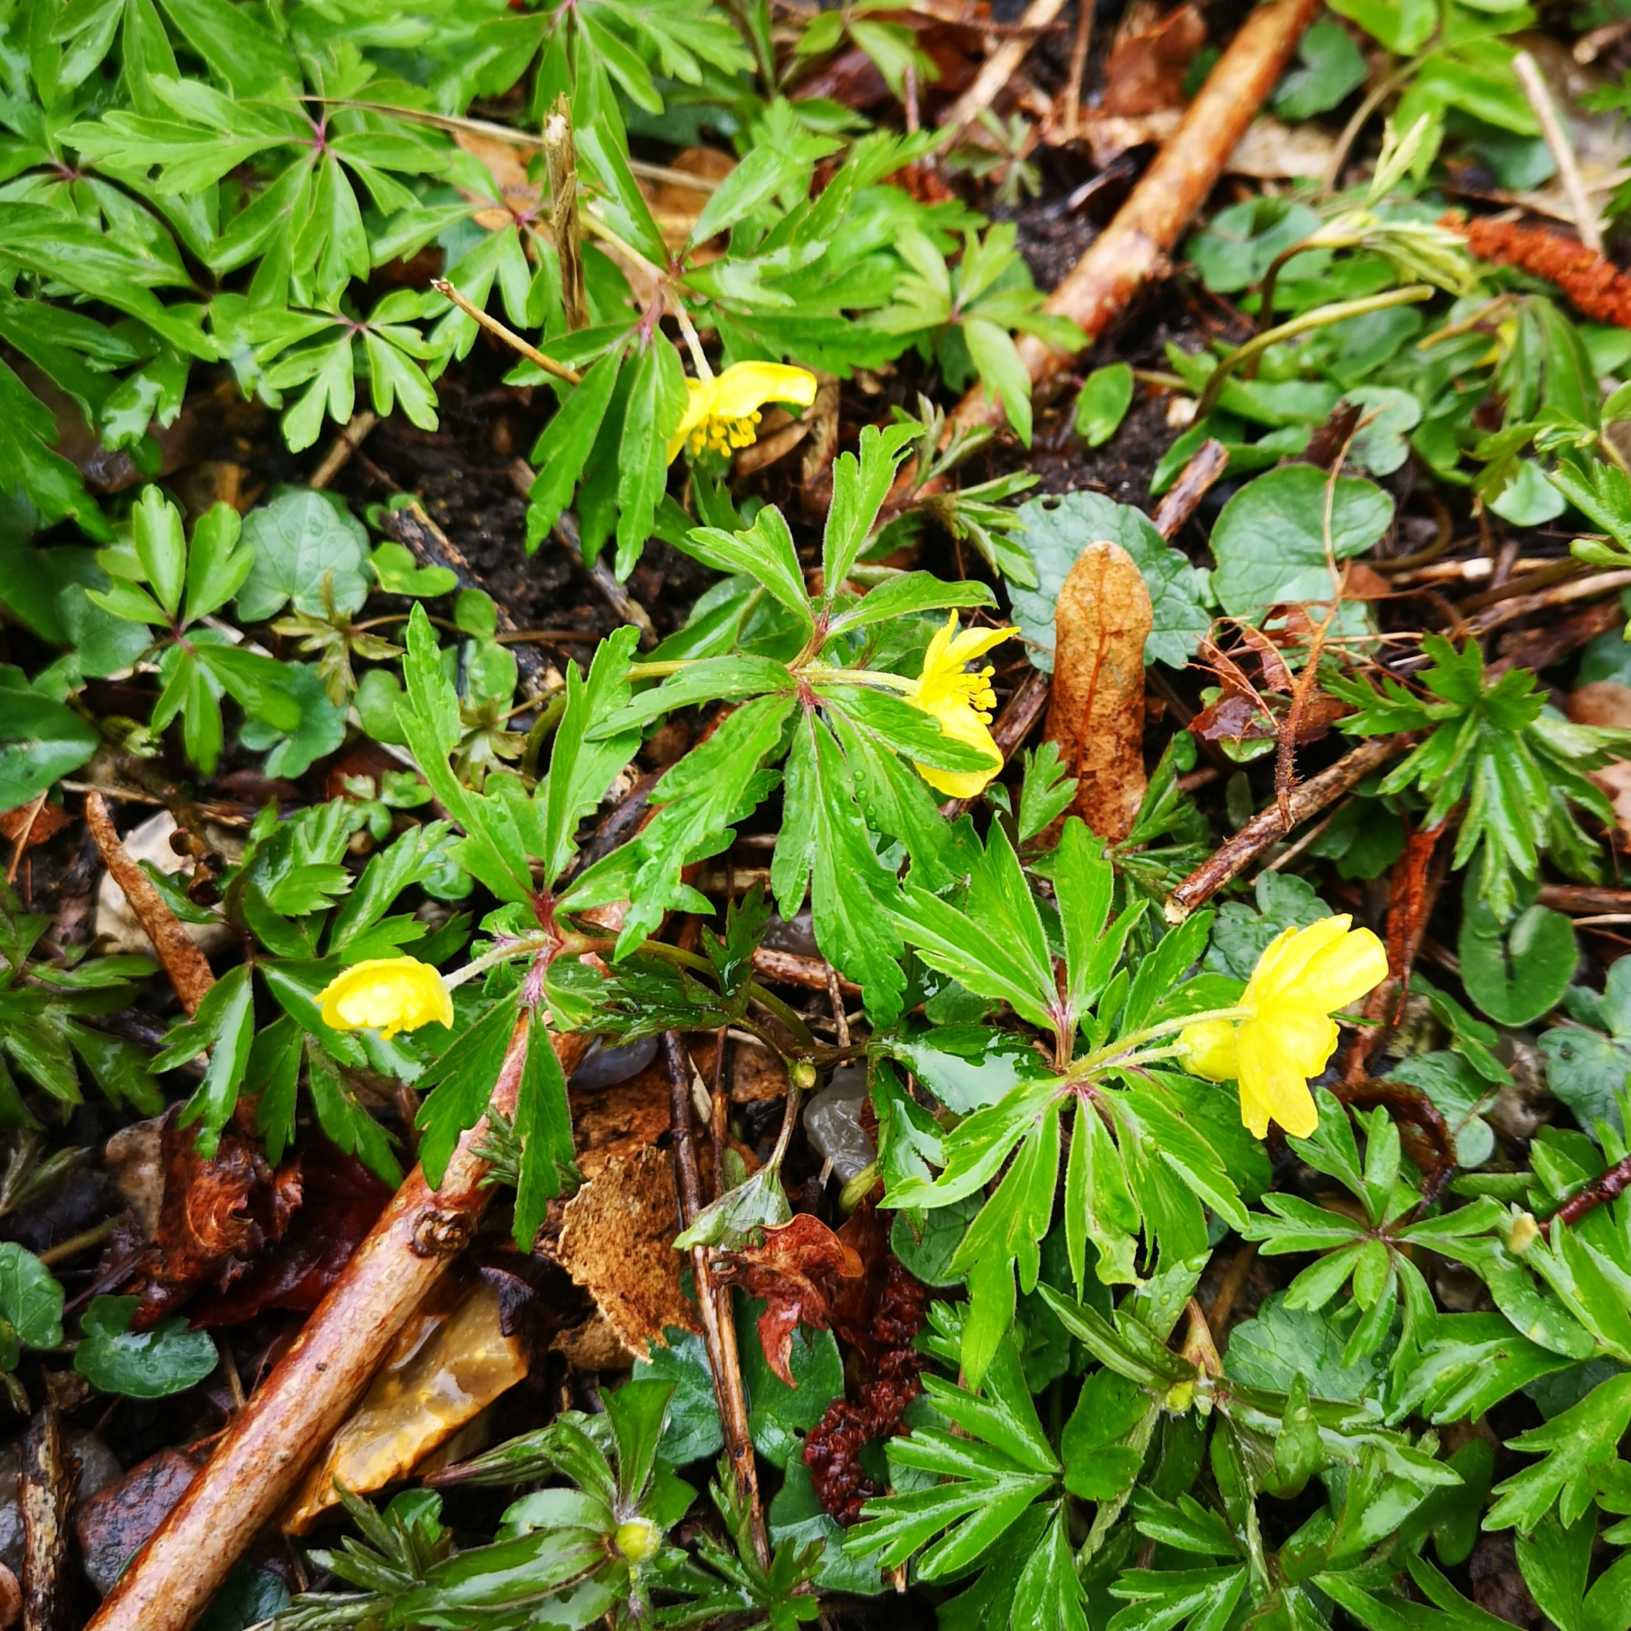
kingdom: Plantae
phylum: Tracheophyta
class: Magnoliopsida
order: Ranunculales
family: Ranunculaceae
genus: Anemone
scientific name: Anemone ranunculoides
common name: Gul anemone
